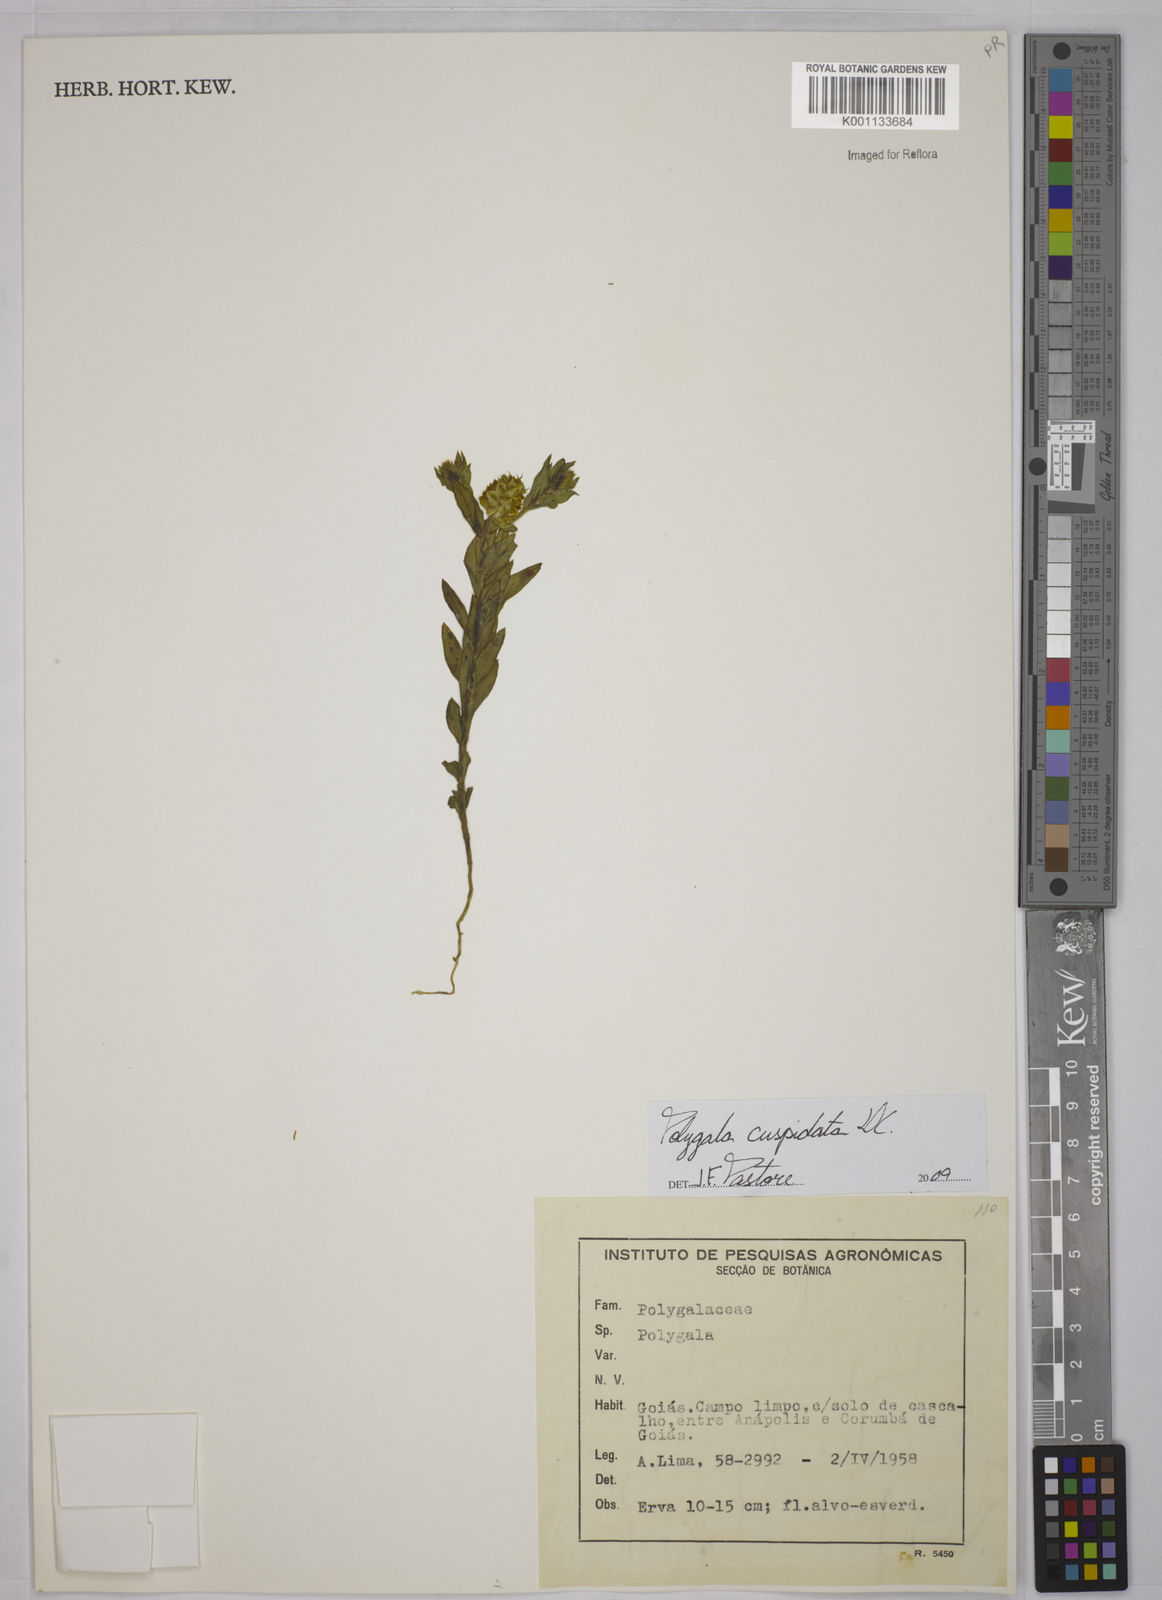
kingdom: Plantae
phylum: Tracheophyta
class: Magnoliopsida
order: Fabales
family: Polygalaceae
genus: Polygala
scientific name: Polygala cuspidata
